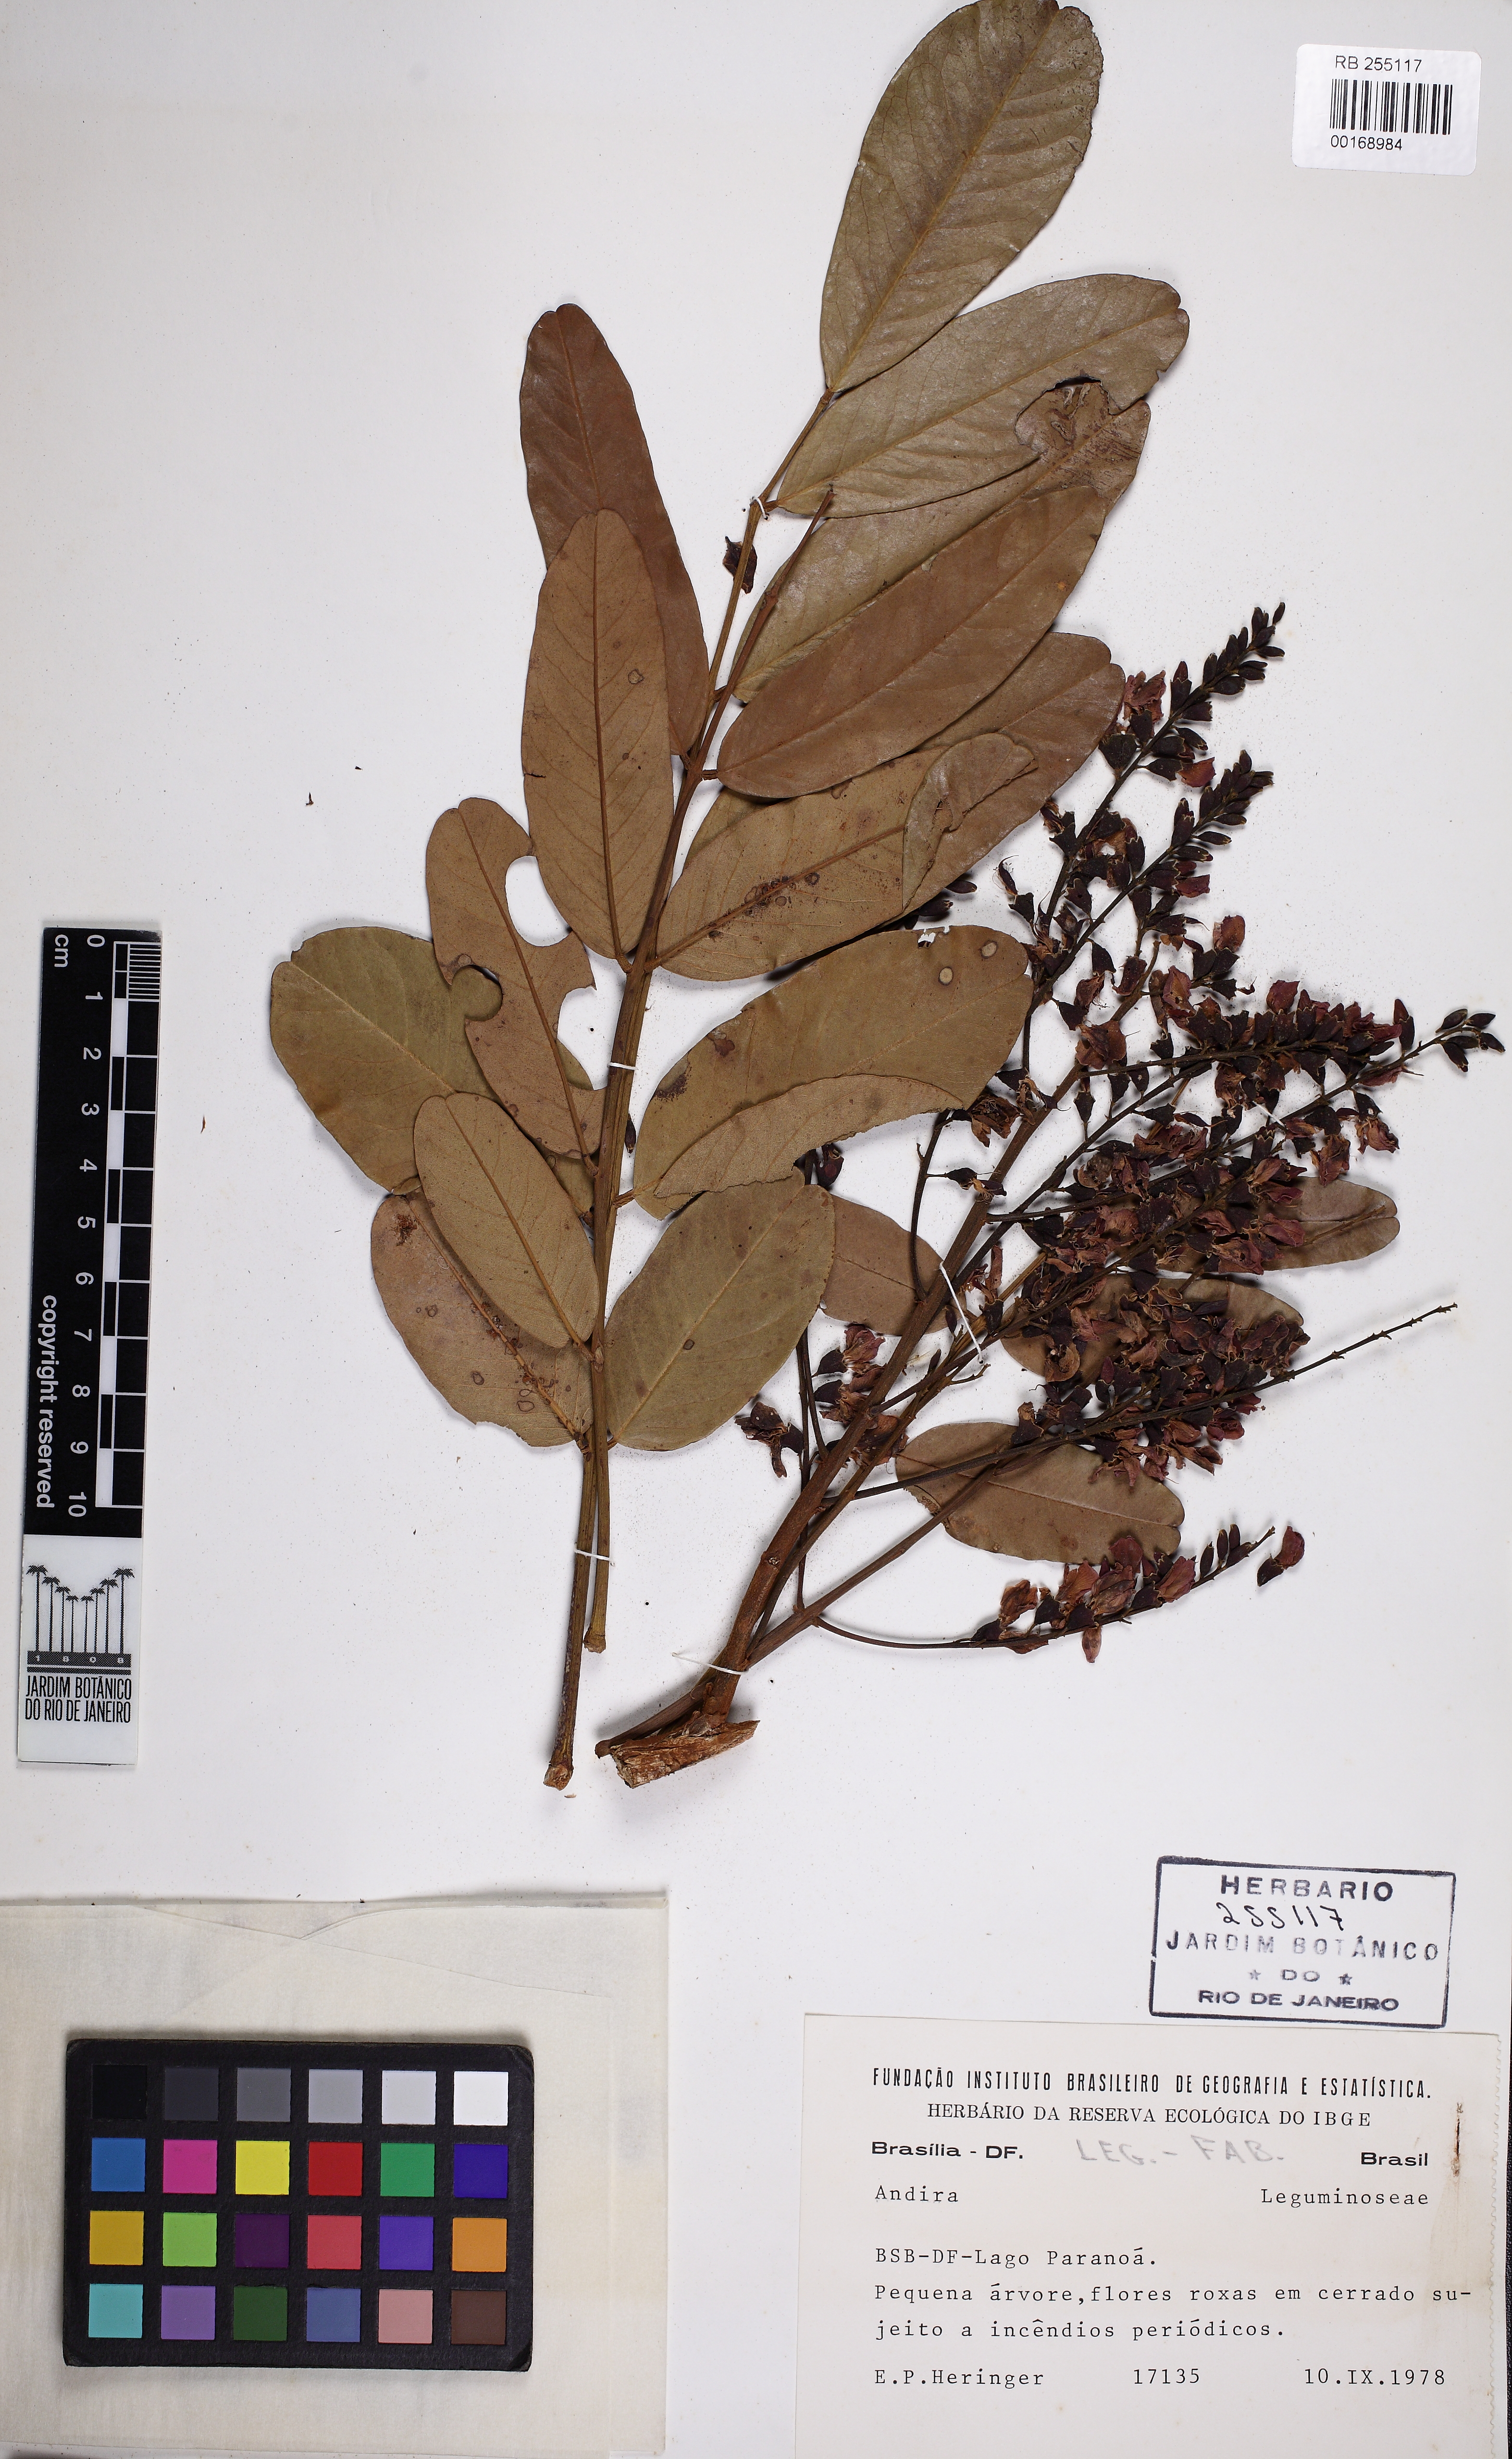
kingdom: Plantae
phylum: Tracheophyta
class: Magnoliopsida
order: Fabales
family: Fabaceae
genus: Andira
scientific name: Andira
